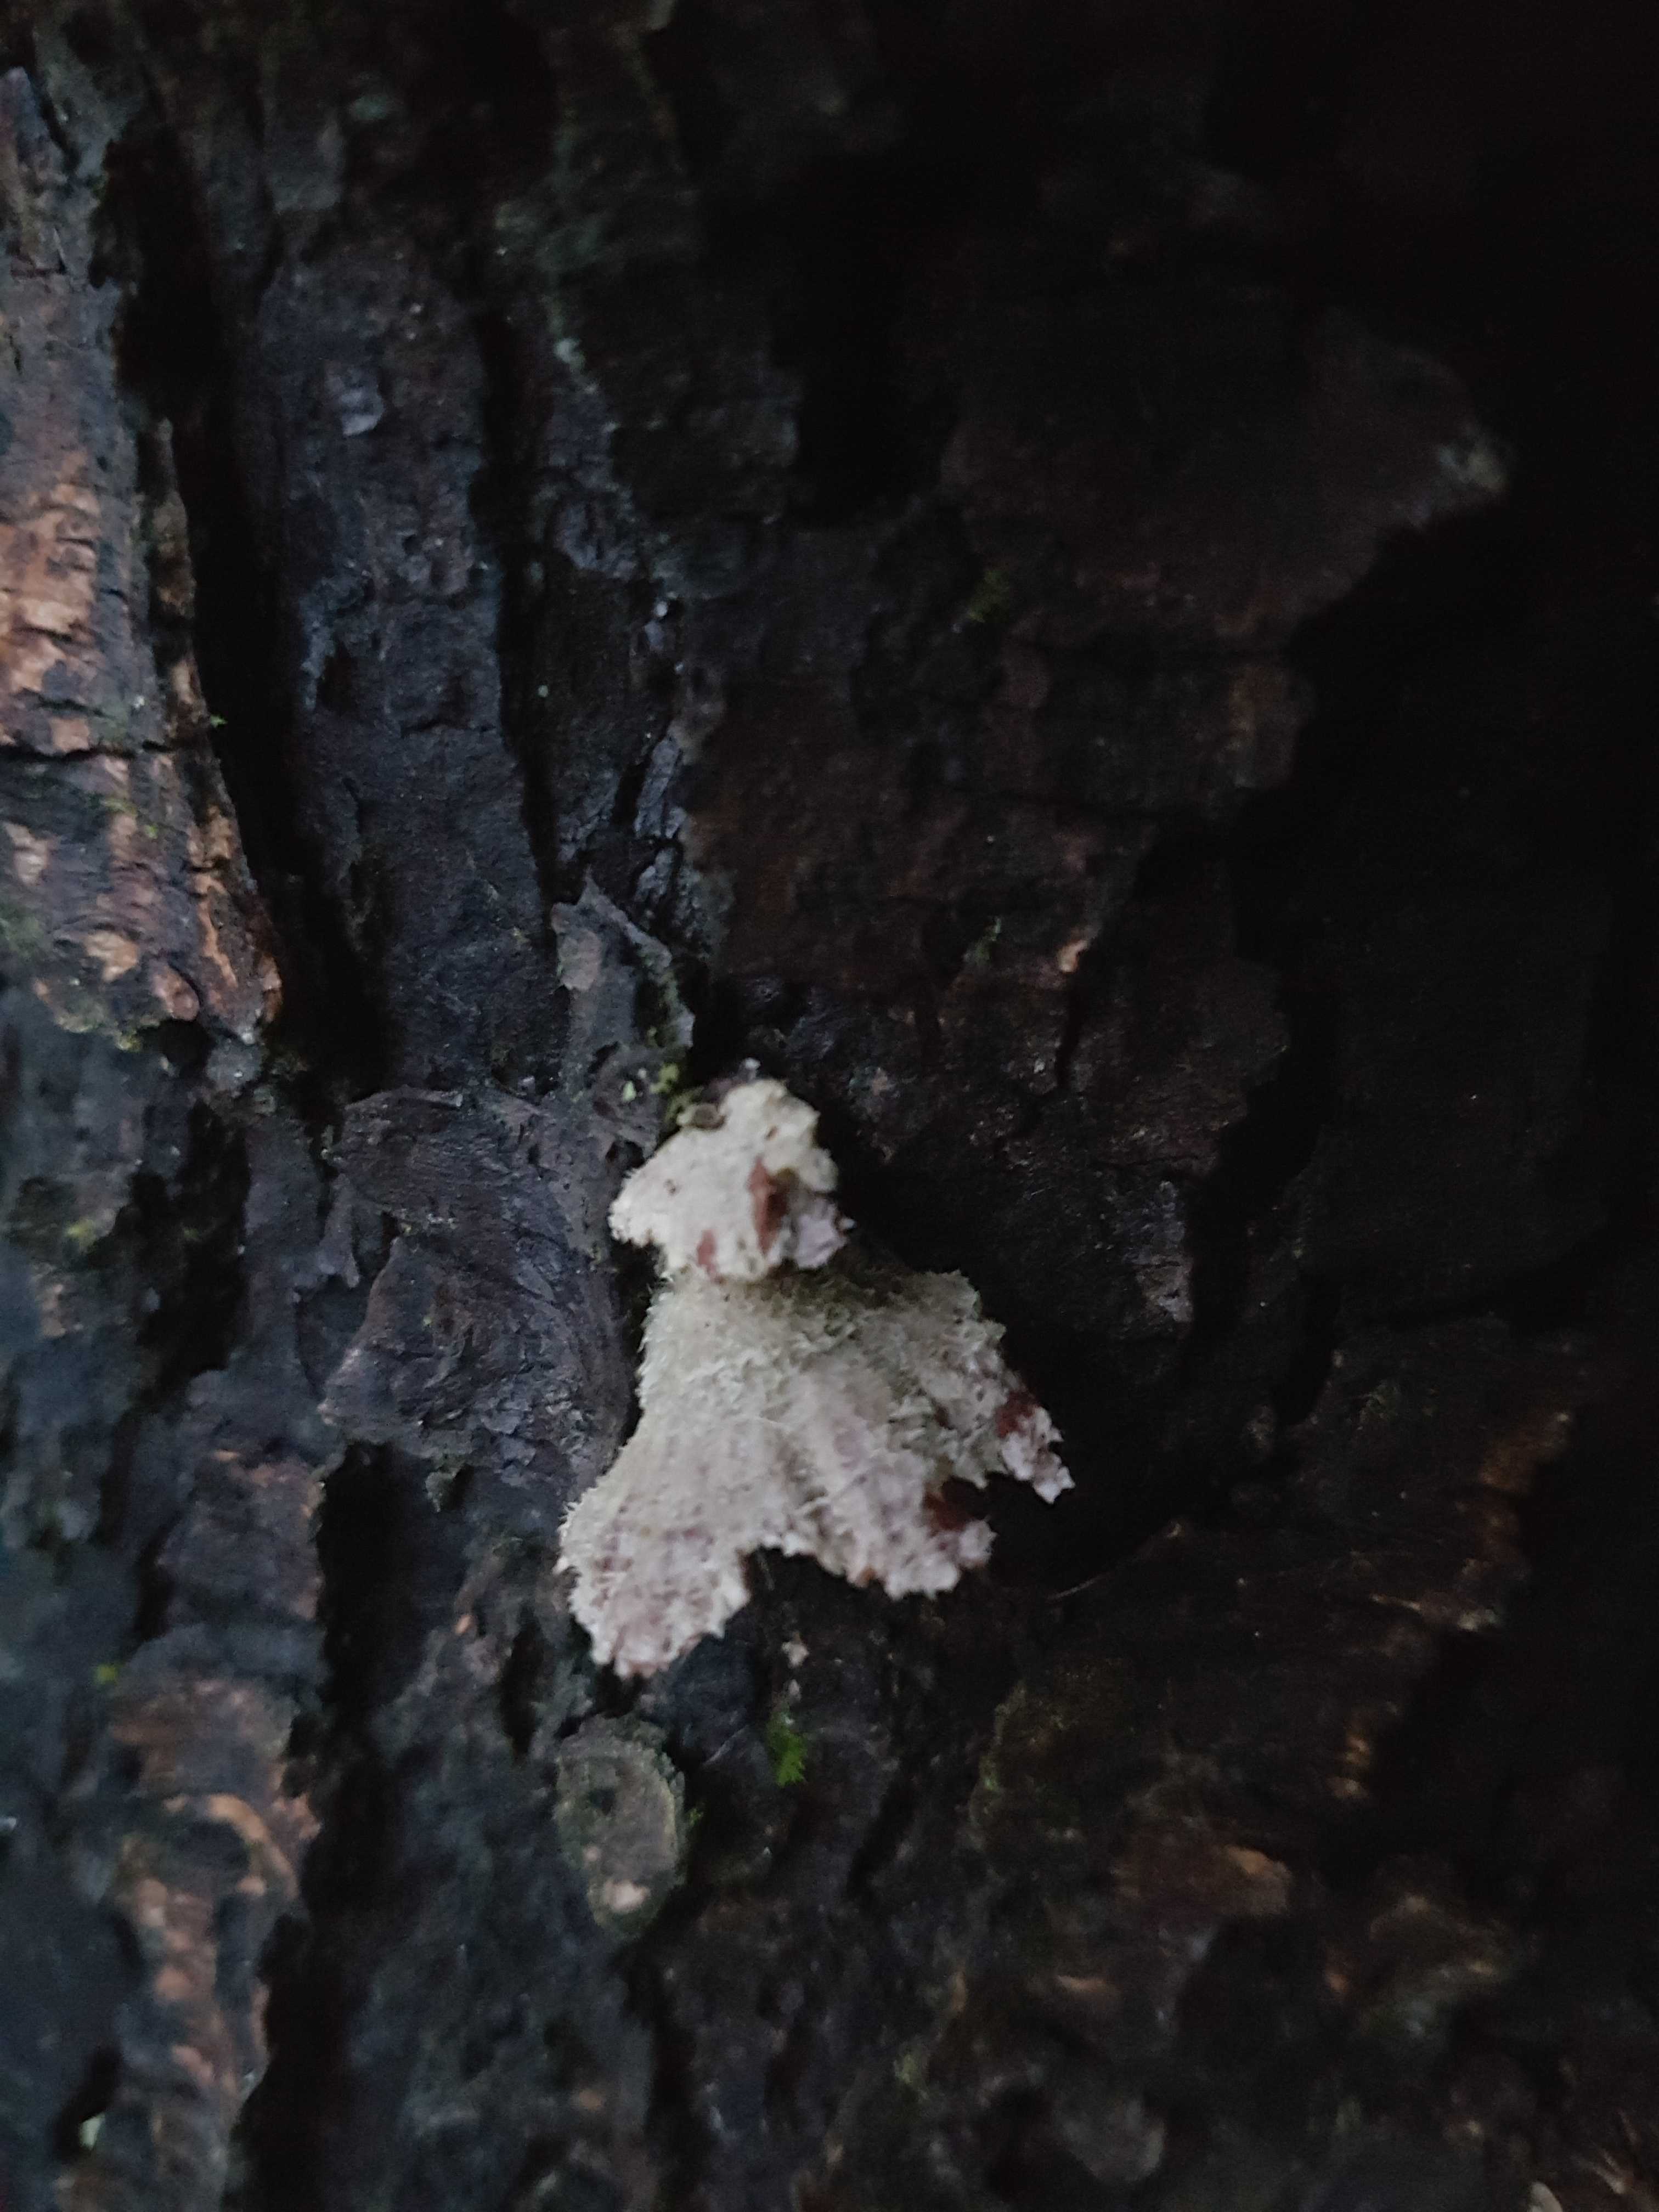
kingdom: Fungi
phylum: Basidiomycota
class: Agaricomycetes
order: Agaricales
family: Schizophyllaceae
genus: Schizophyllum
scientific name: Schizophyllum commune
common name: kløvblad
